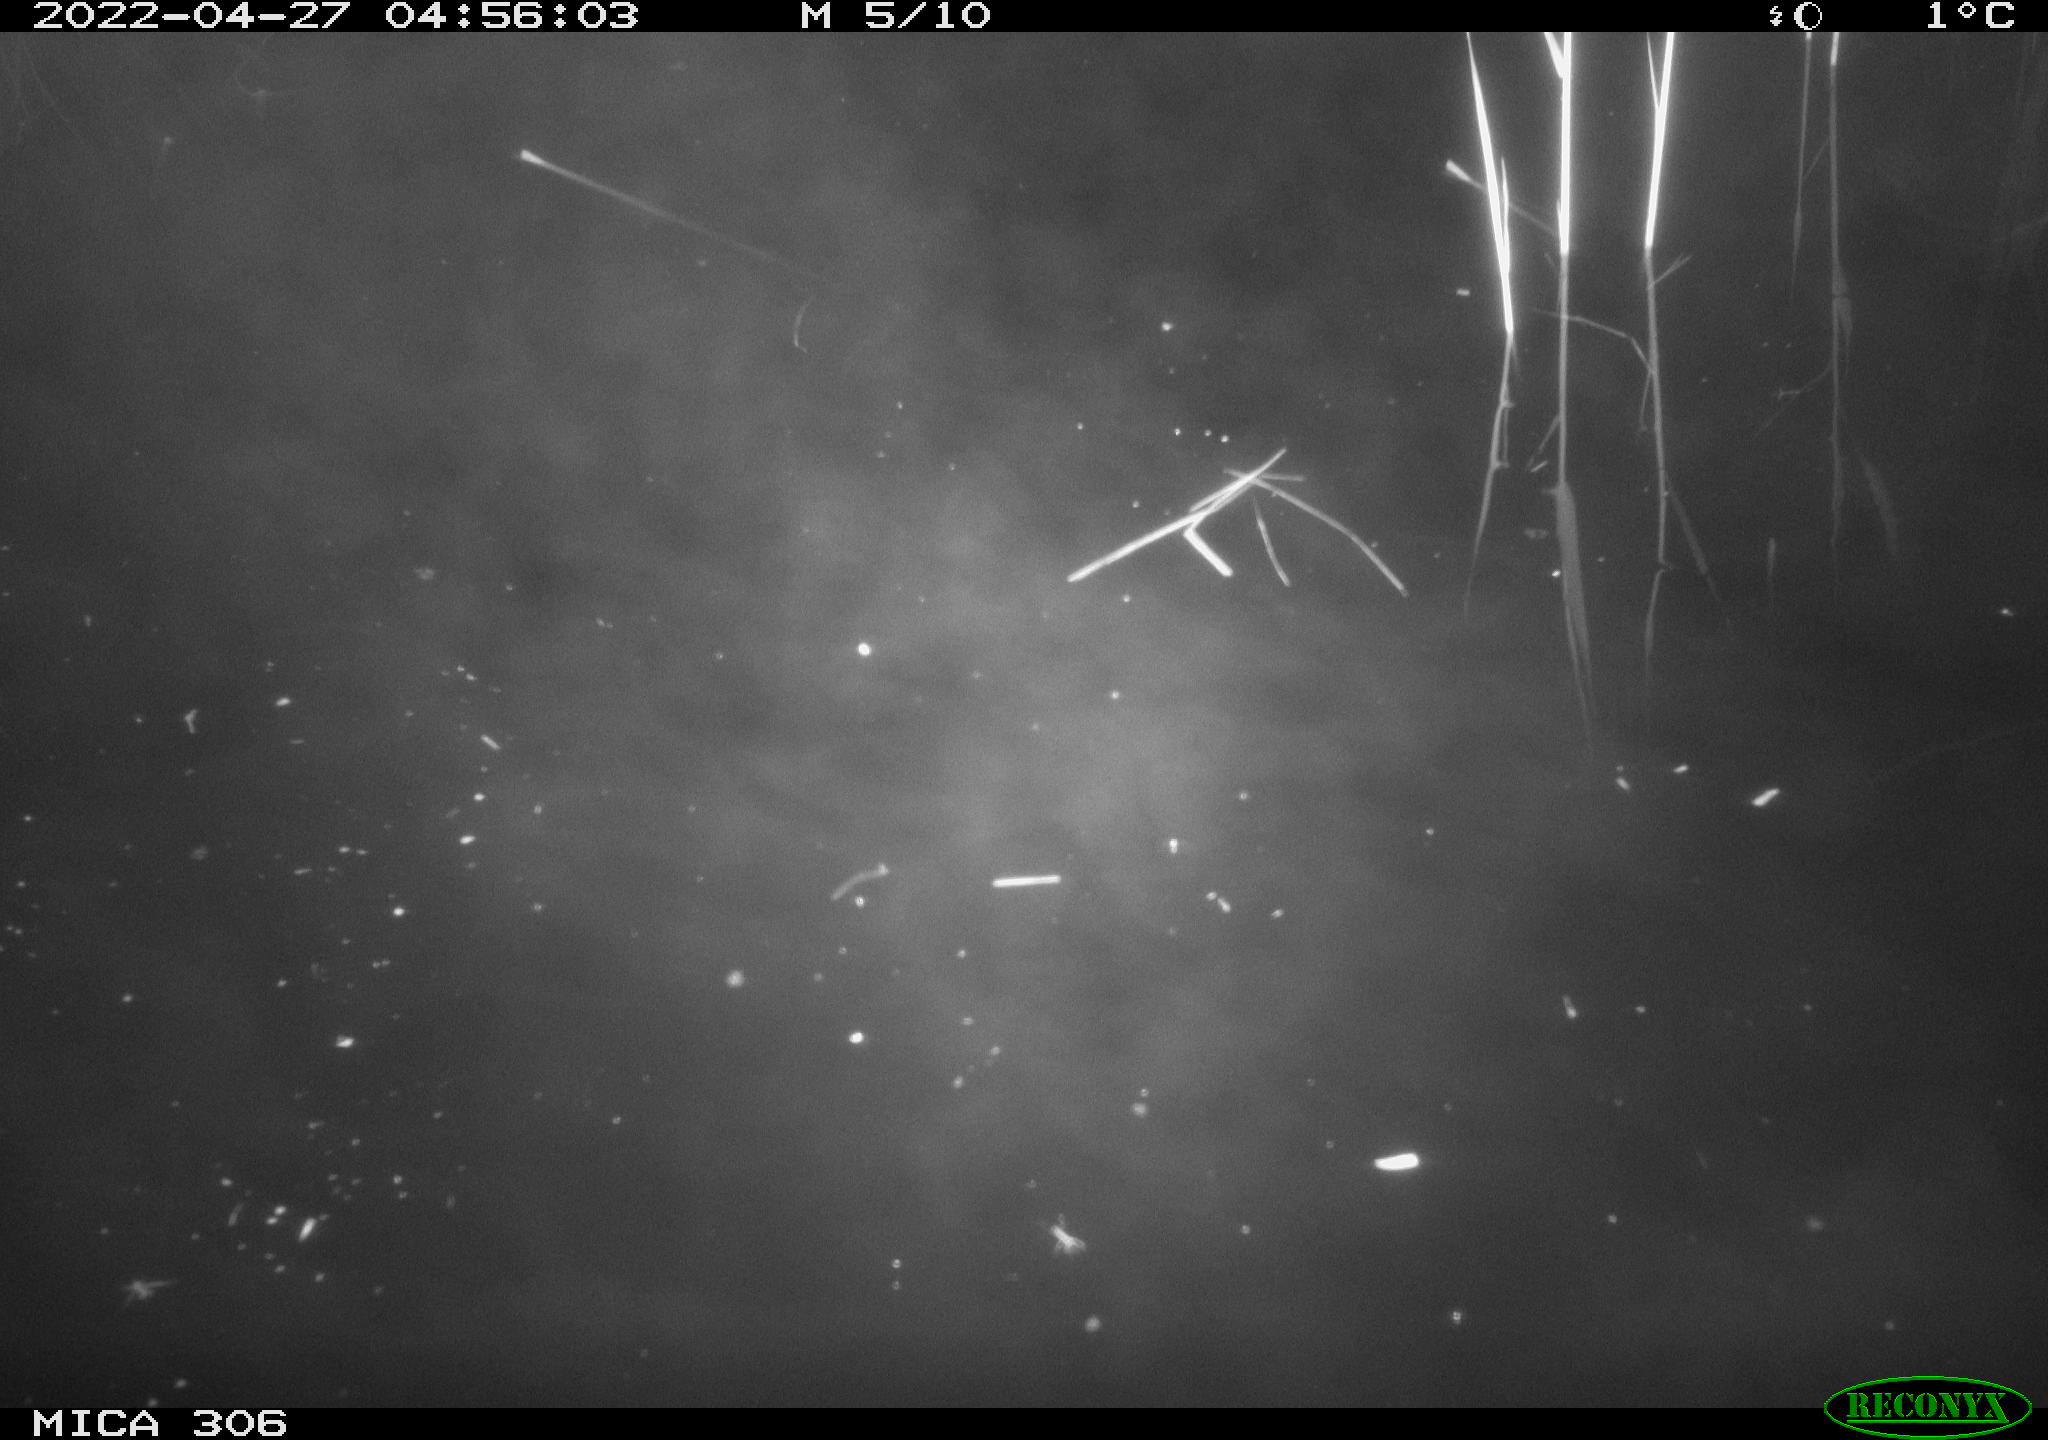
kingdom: Animalia
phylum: Chordata
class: Aves
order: Gruiformes
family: Rallidae
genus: Gallinula
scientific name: Gallinula chloropus
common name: Common moorhen
